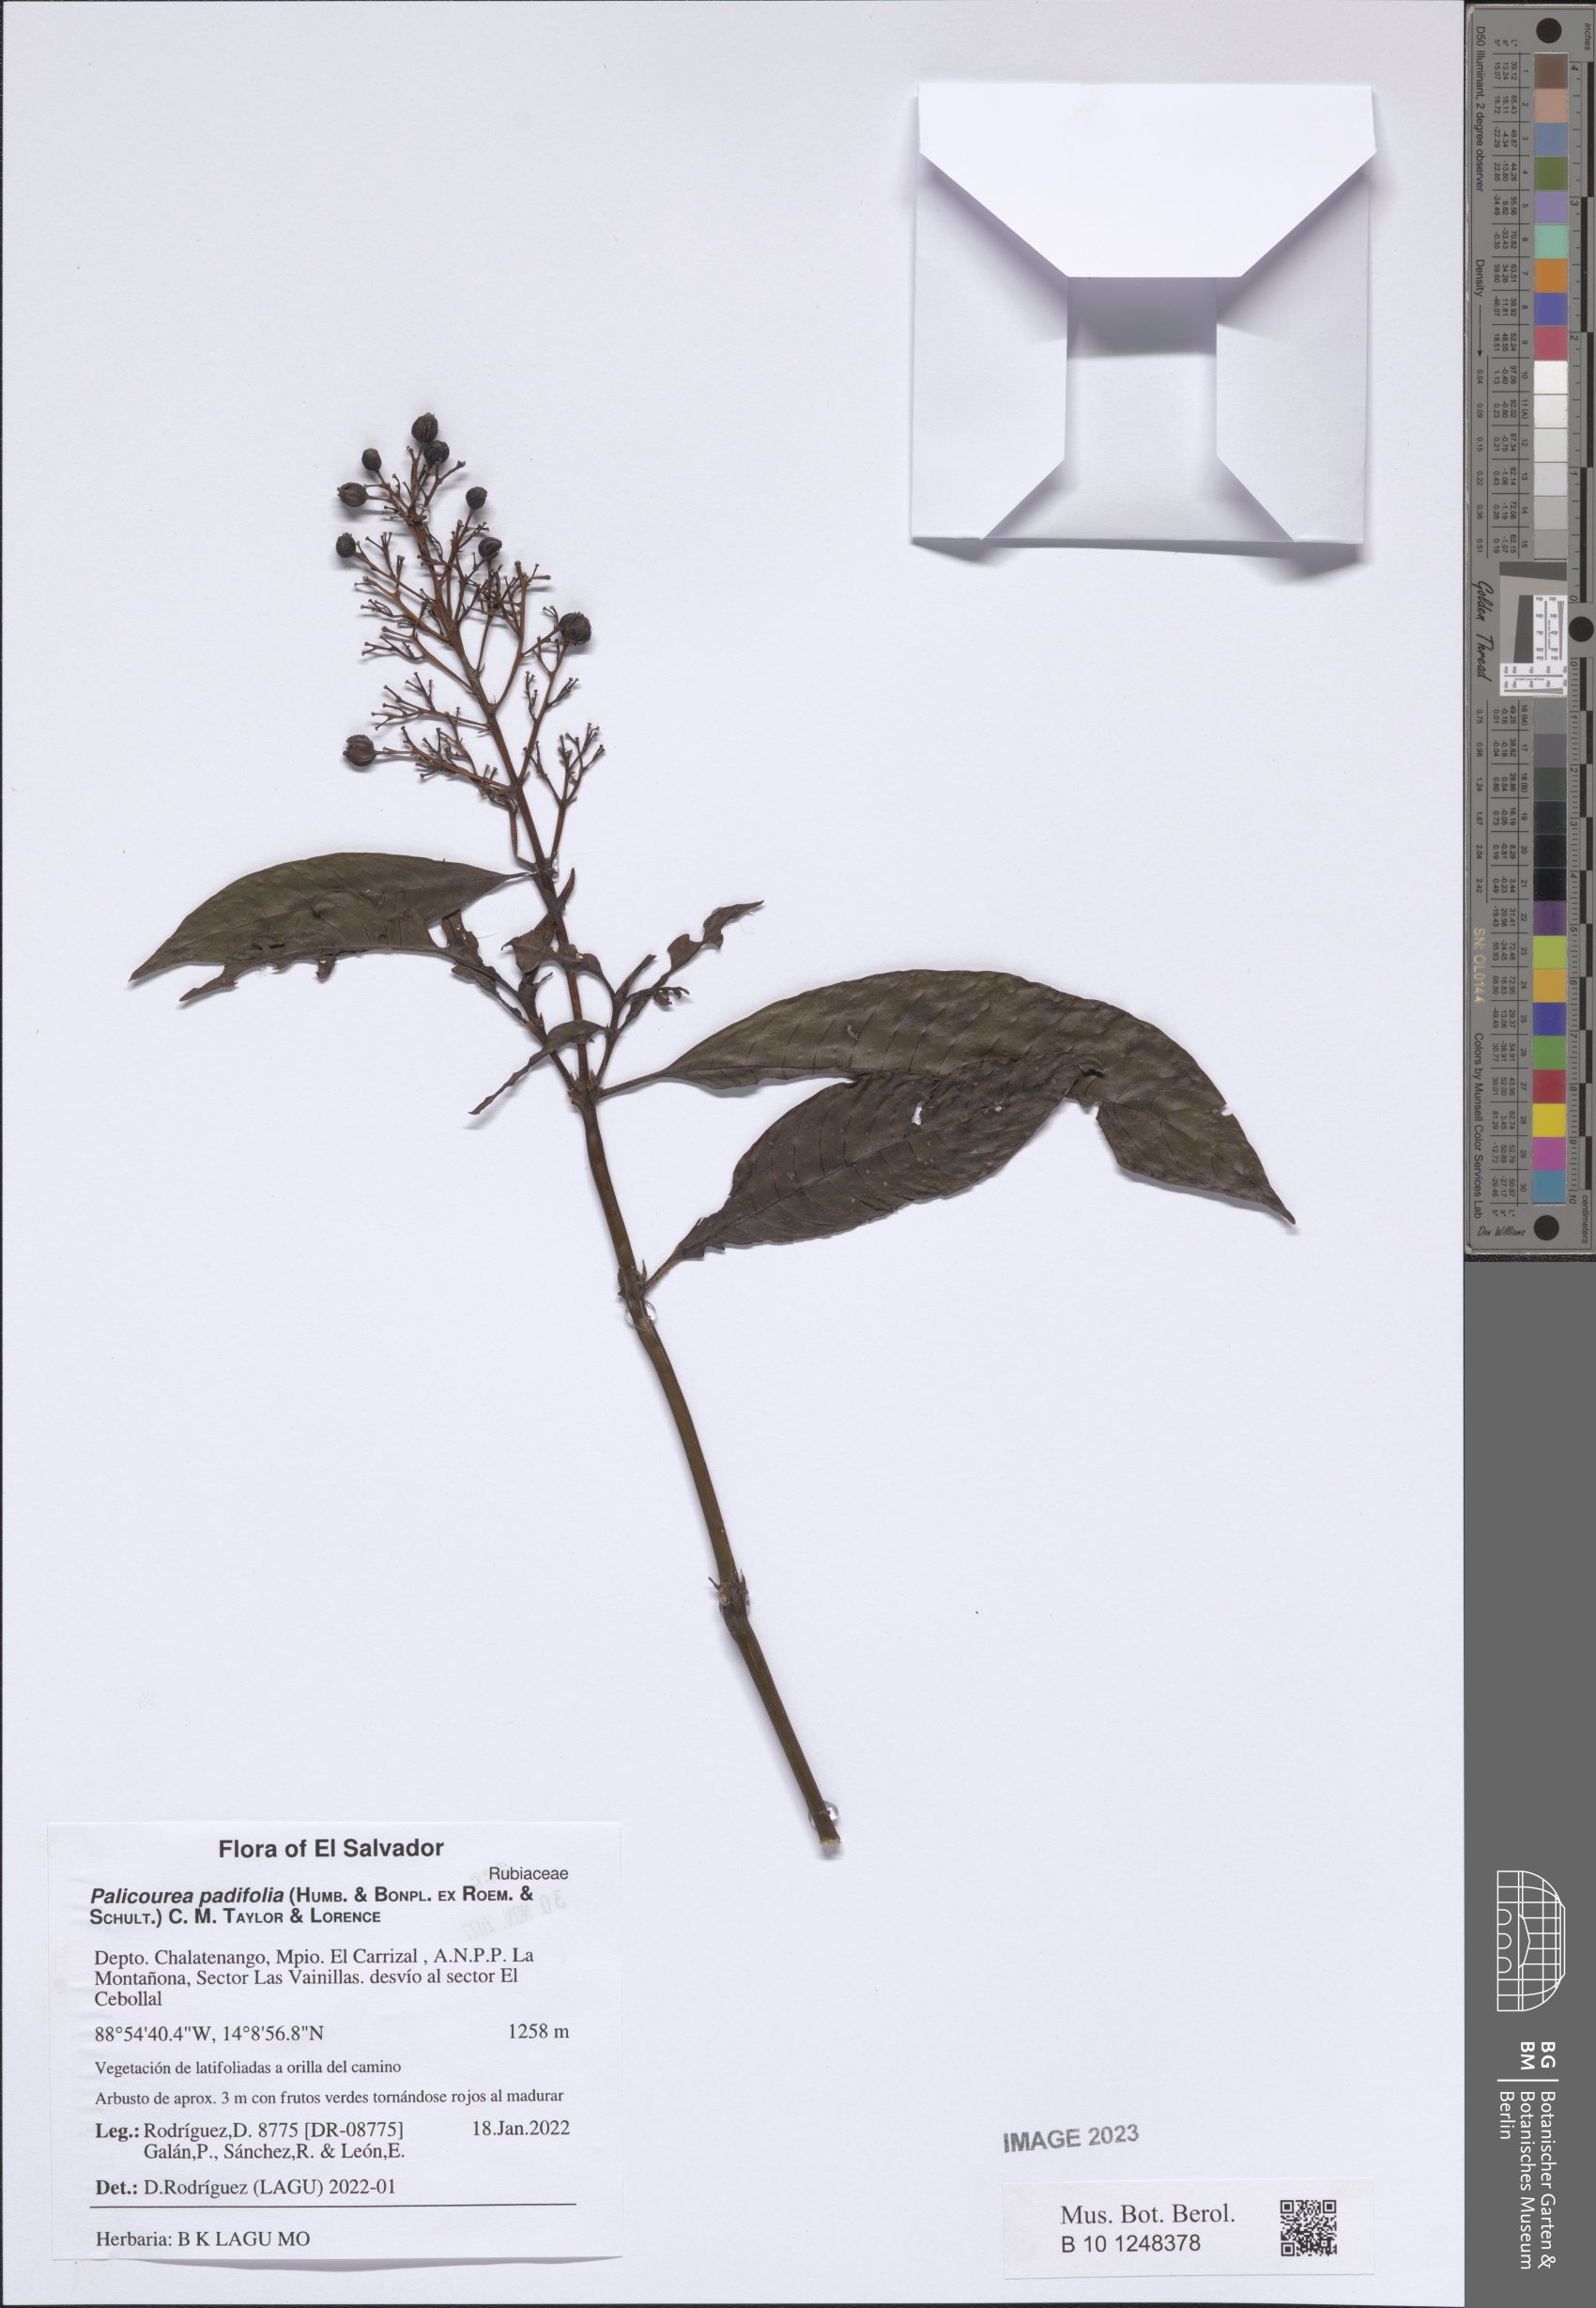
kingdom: Plantae
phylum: Tracheophyta
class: Magnoliopsida
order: Gentianales
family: Rubiaceae
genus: Palicourea
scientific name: Palicourea padifolia
